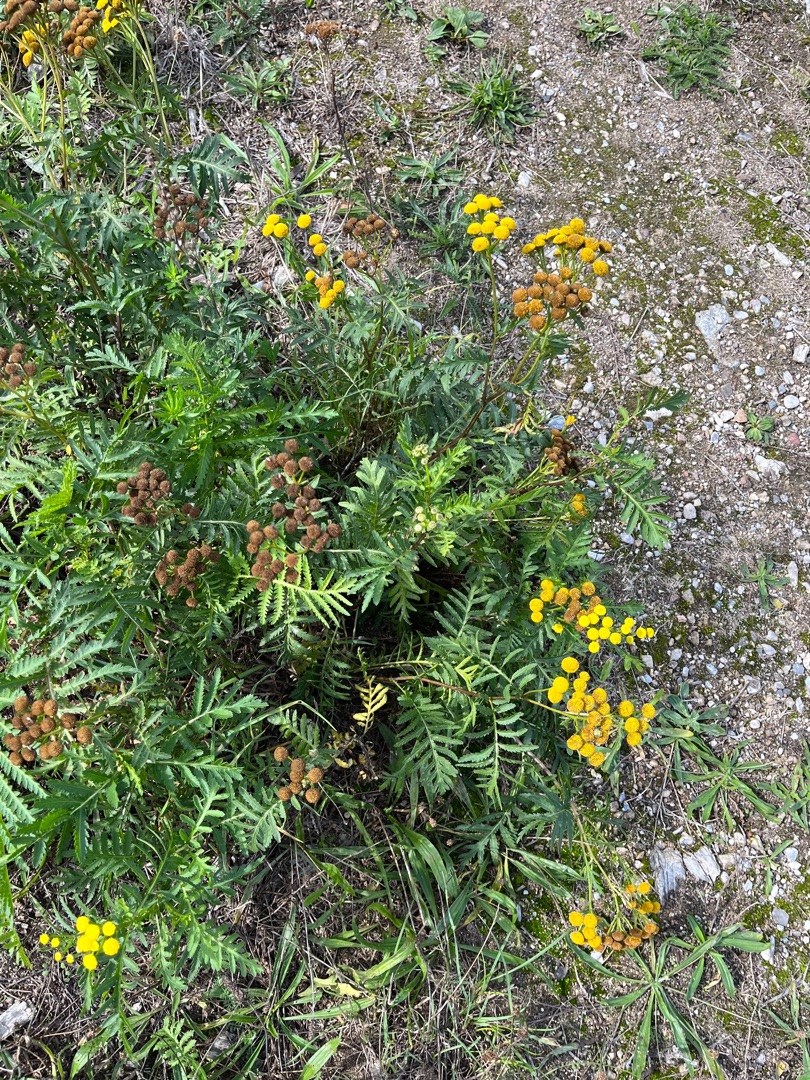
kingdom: Plantae
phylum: Tracheophyta
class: Magnoliopsida
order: Asterales
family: Asteraceae
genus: Tanacetum
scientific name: Tanacetum vulgare
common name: Rejnfan
